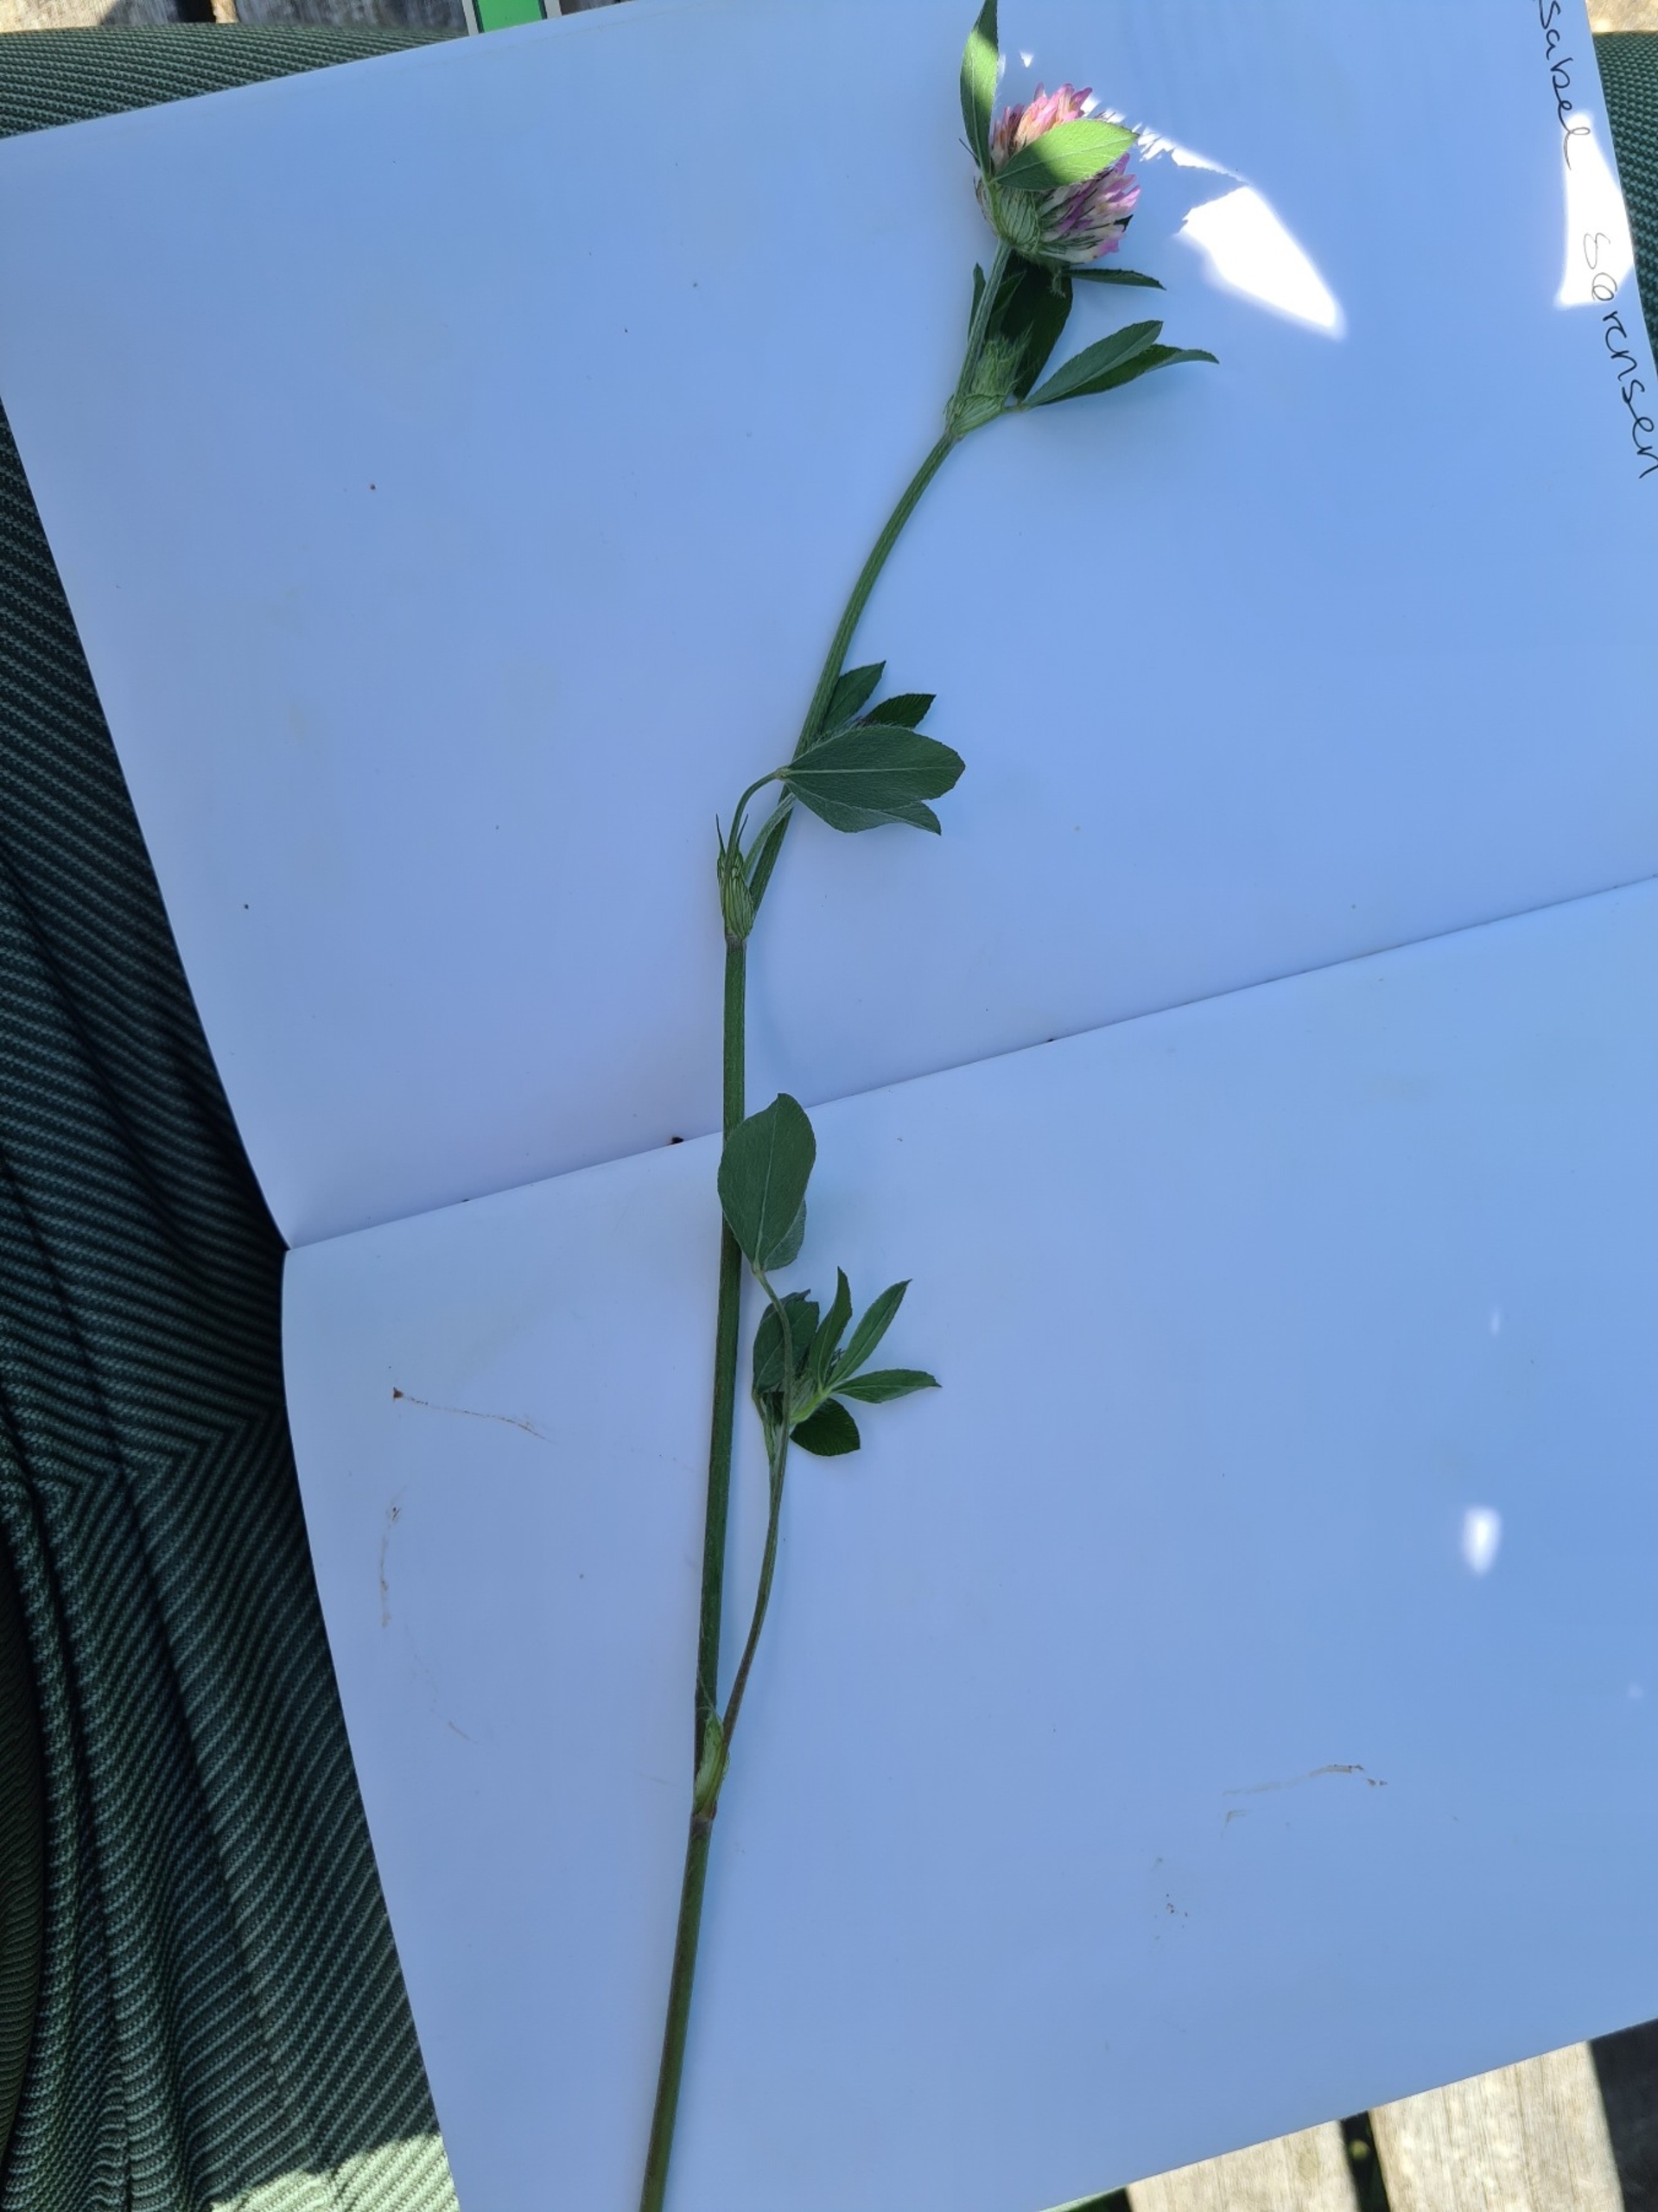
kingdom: Plantae
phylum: Tracheophyta
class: Magnoliopsida
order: Fabales
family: Fabaceae
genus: Trifolium
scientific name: Trifolium pratense
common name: Rød-kløver
